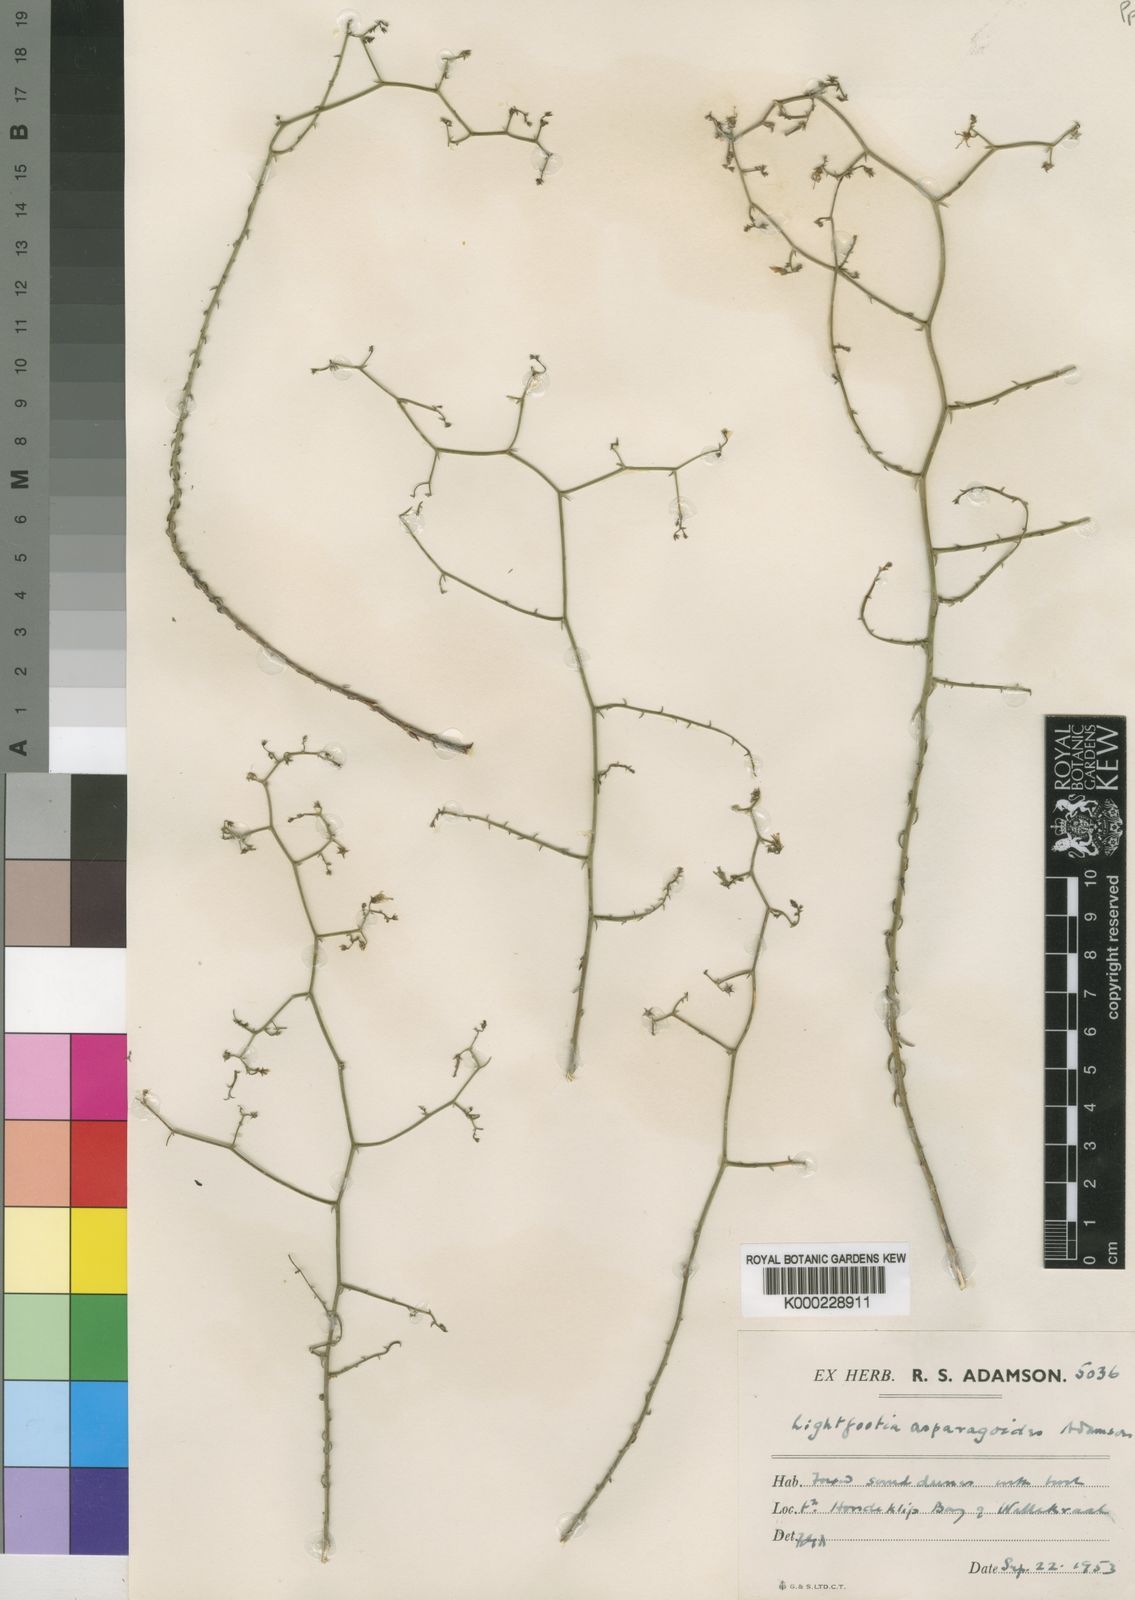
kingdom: Plantae
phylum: Tracheophyta
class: Magnoliopsida
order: Asterales
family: Campanulaceae
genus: Wahlenbergia
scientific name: Wahlenbergia asparagoides
